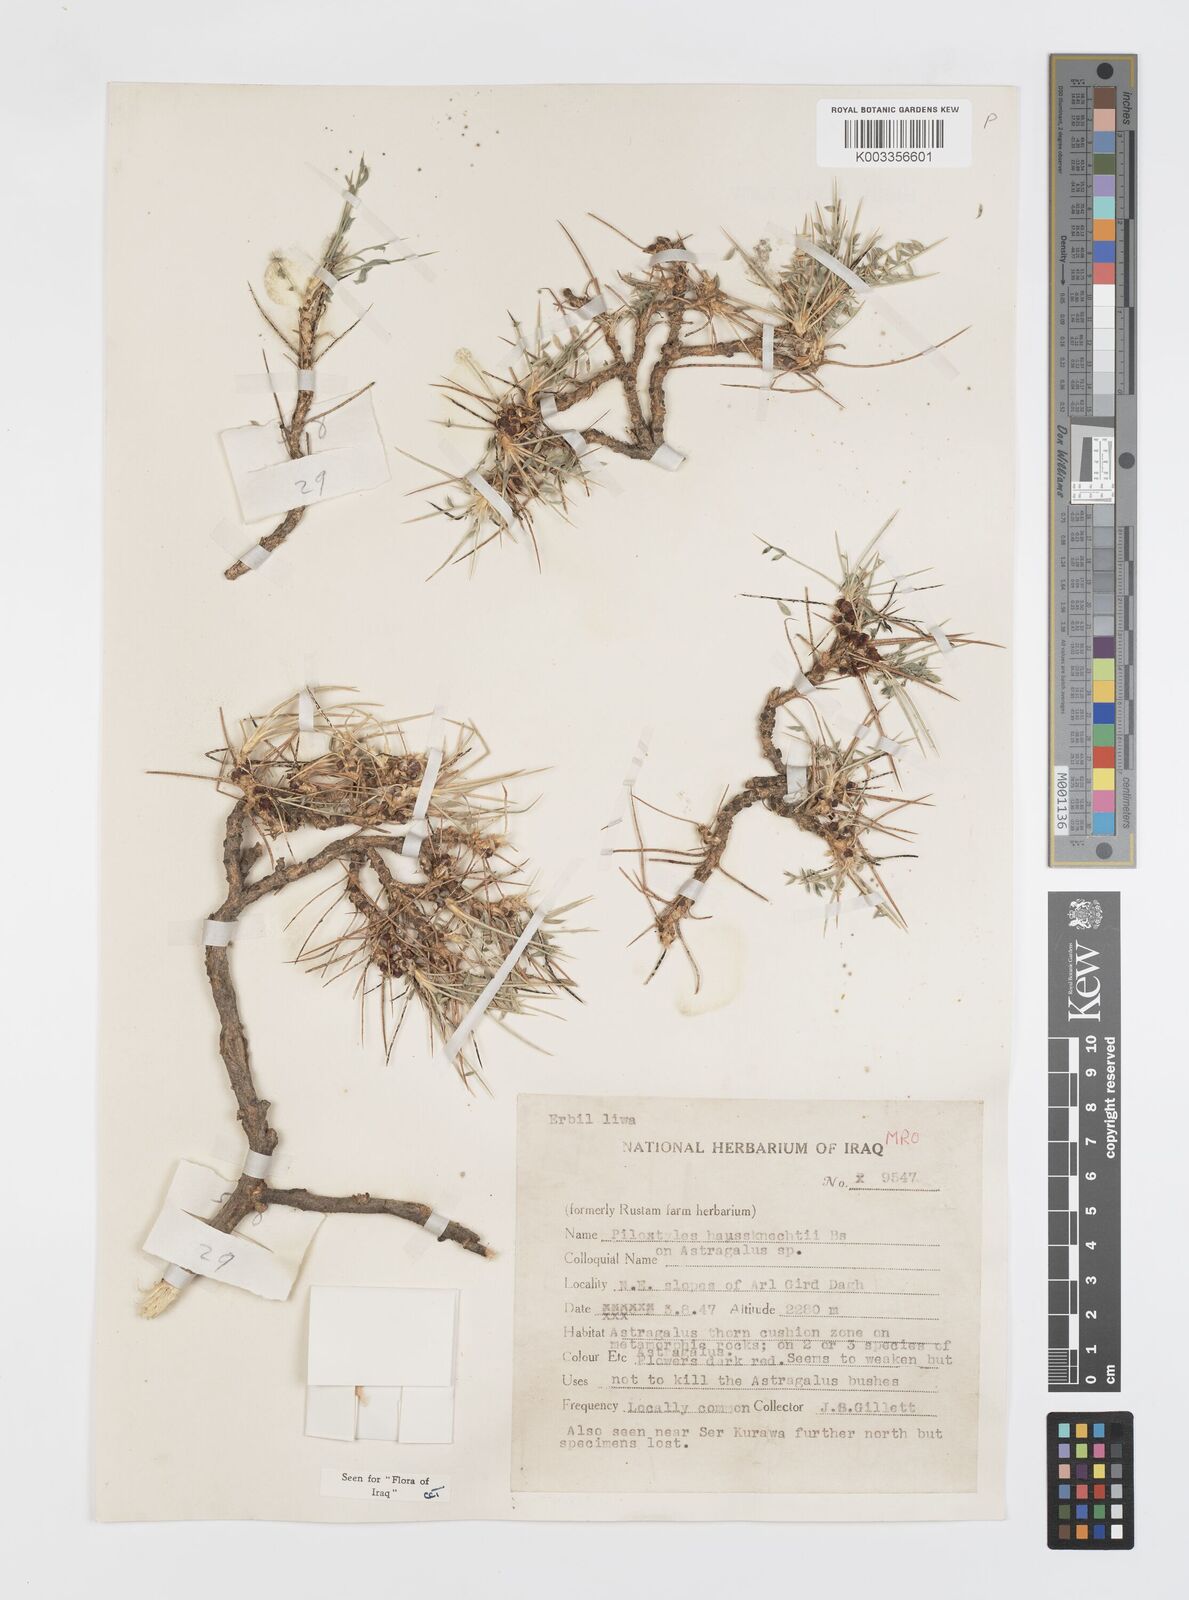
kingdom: Plantae
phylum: Tracheophyta
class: Magnoliopsida
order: Cucurbitales
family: Apodanthaceae
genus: Pilostyles
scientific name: Pilostyles haussknechtii
